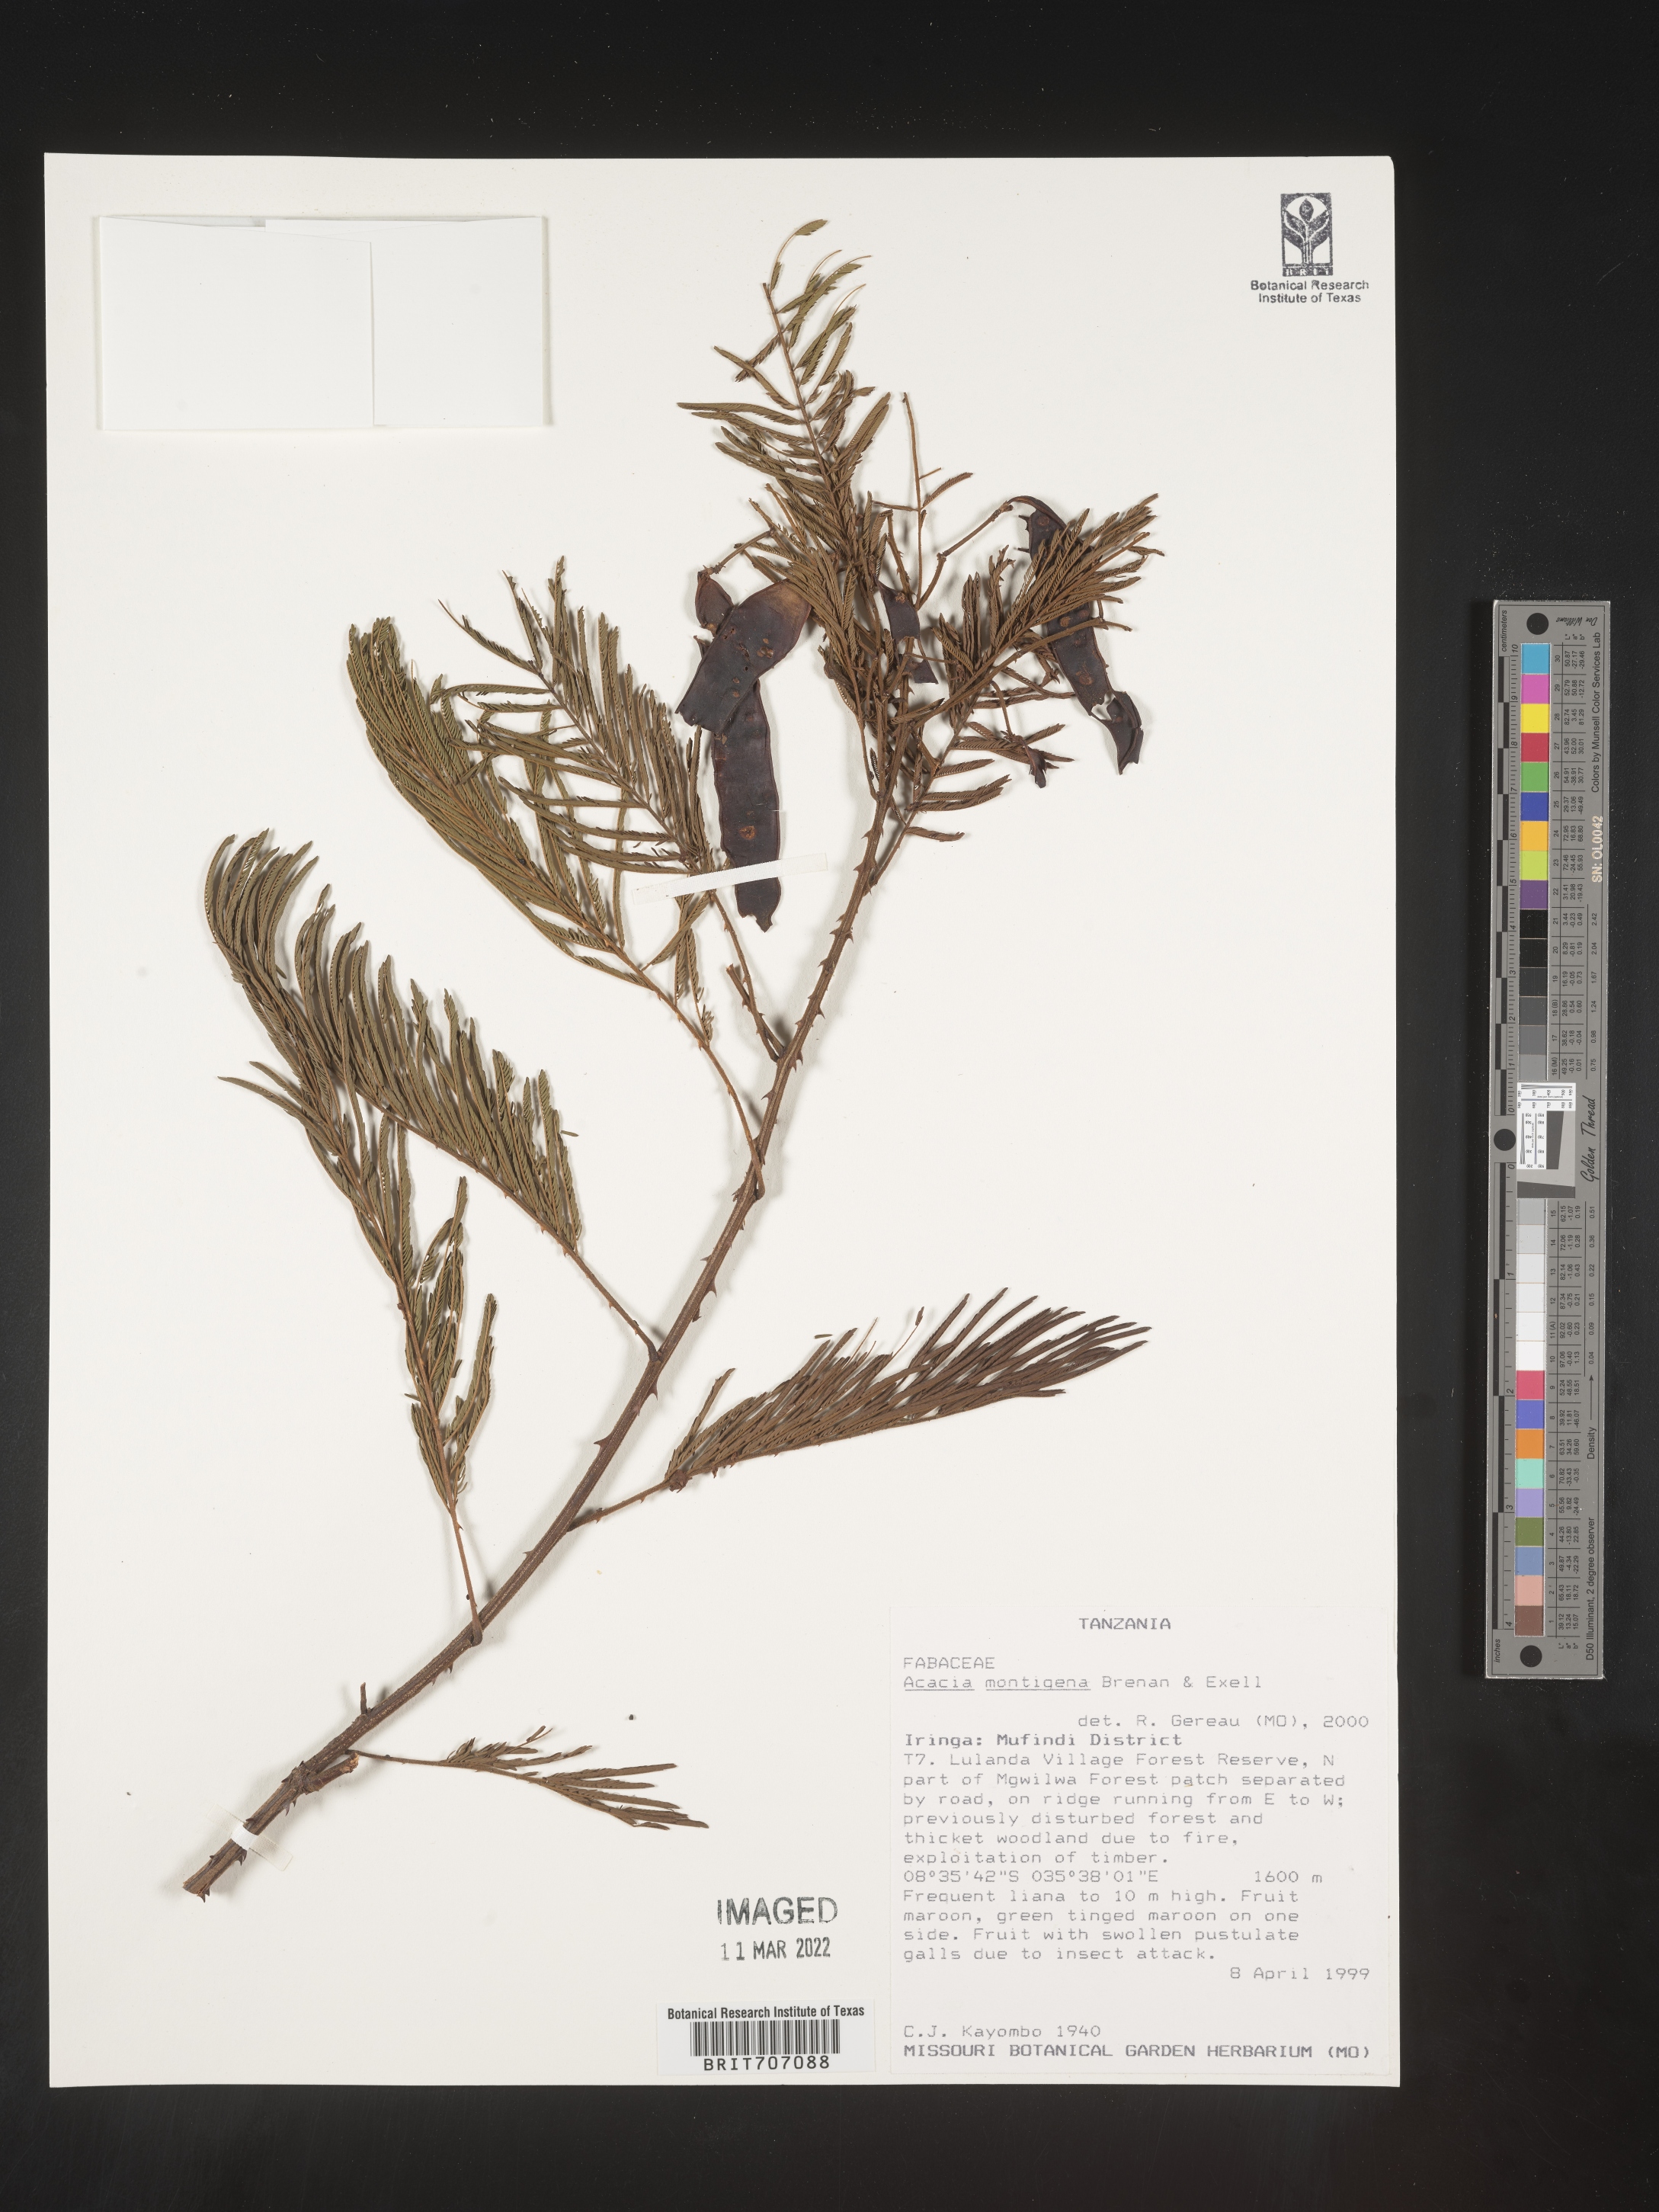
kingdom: Plantae
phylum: Tracheophyta
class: Magnoliopsida
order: Fabales
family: Fabaceae
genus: Acacia
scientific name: Acacia
